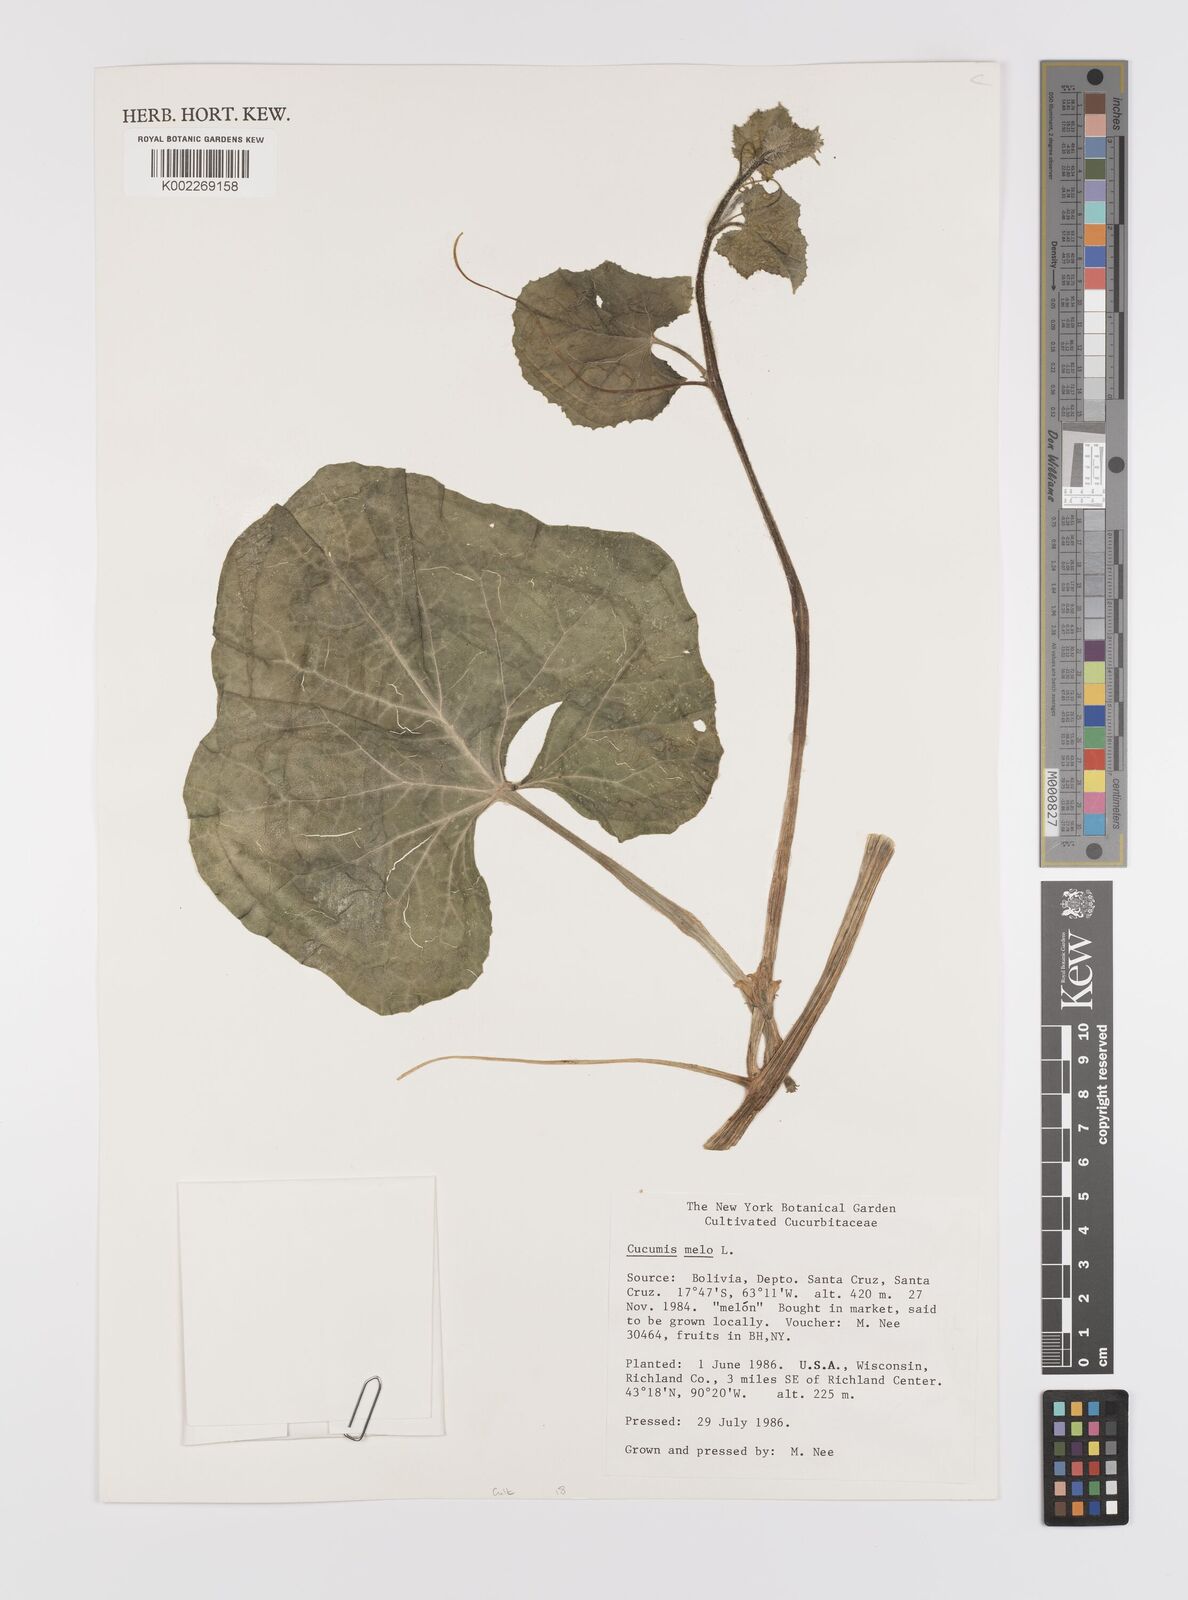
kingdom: Plantae
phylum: Tracheophyta
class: Magnoliopsida
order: Cucurbitales
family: Cucurbitaceae
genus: Cucumis
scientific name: Cucumis melo
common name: Melon
